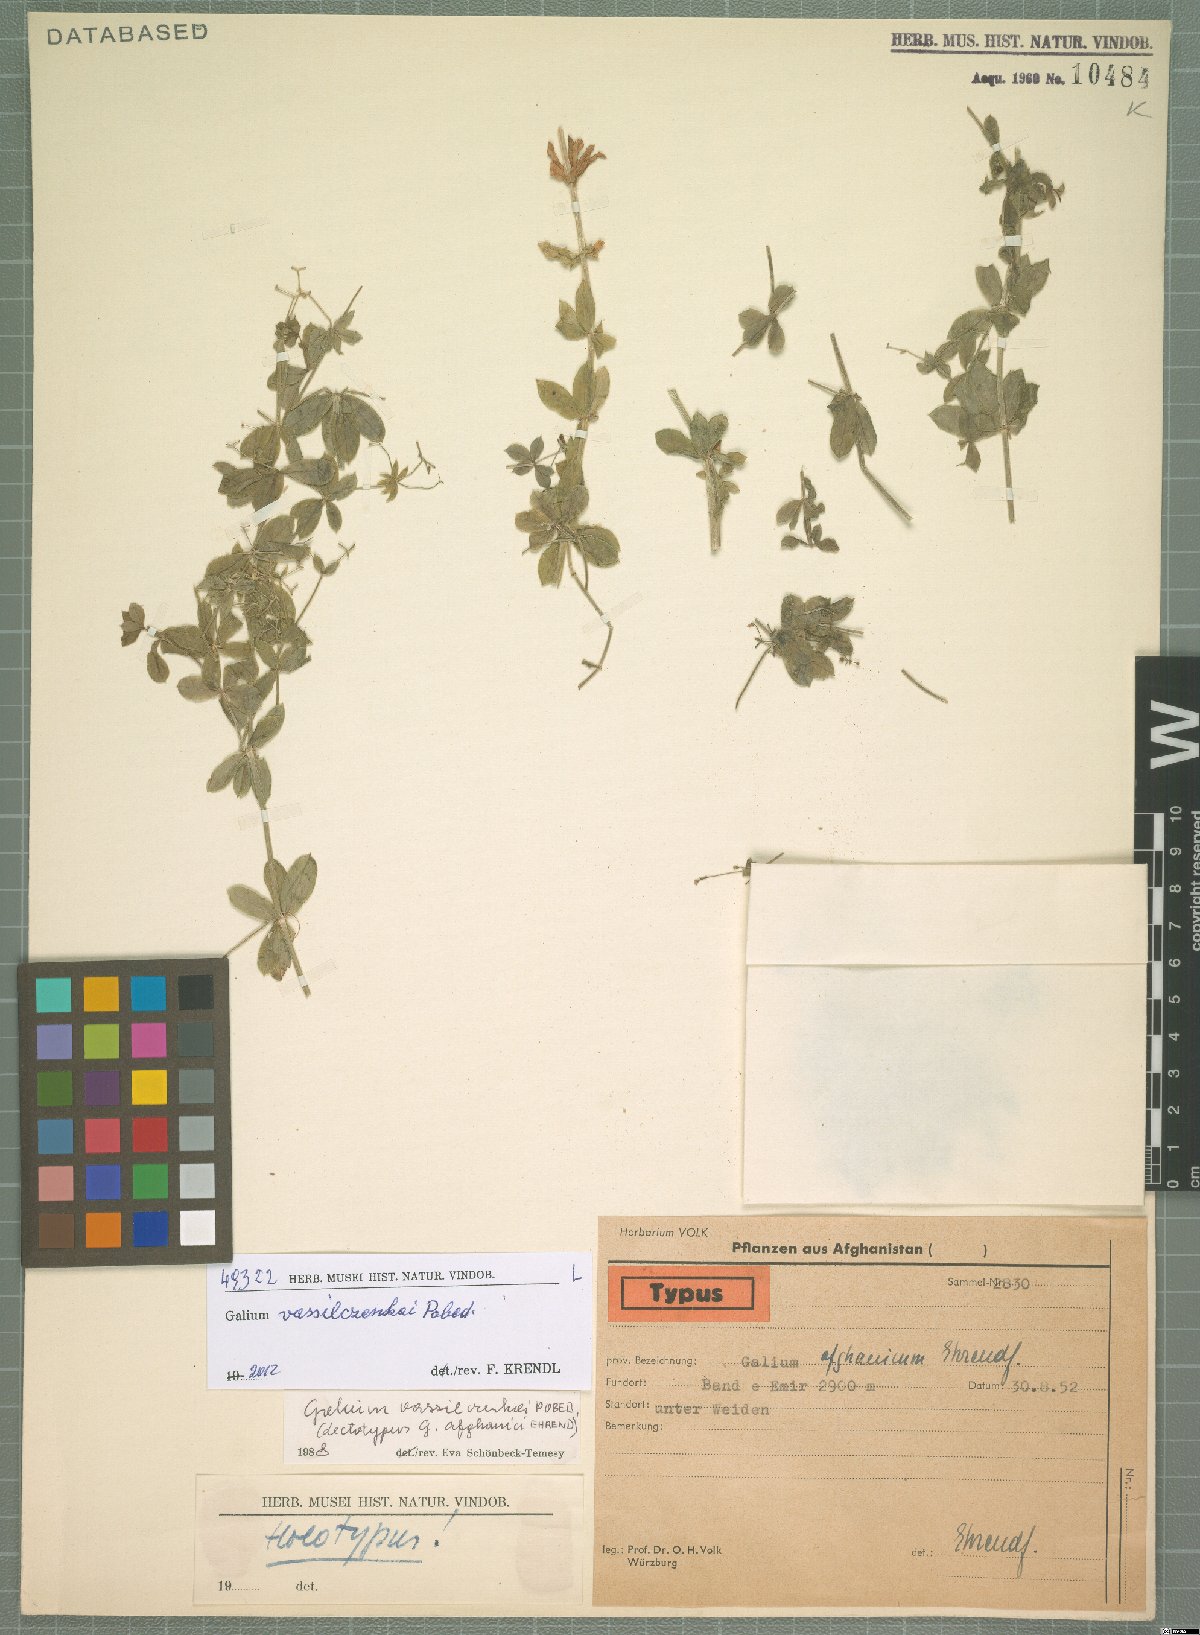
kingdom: Plantae
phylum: Tracheophyta
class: Magnoliopsida
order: Gentianales
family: Rubiaceae
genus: Galium
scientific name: Galium vassilczenkoi
